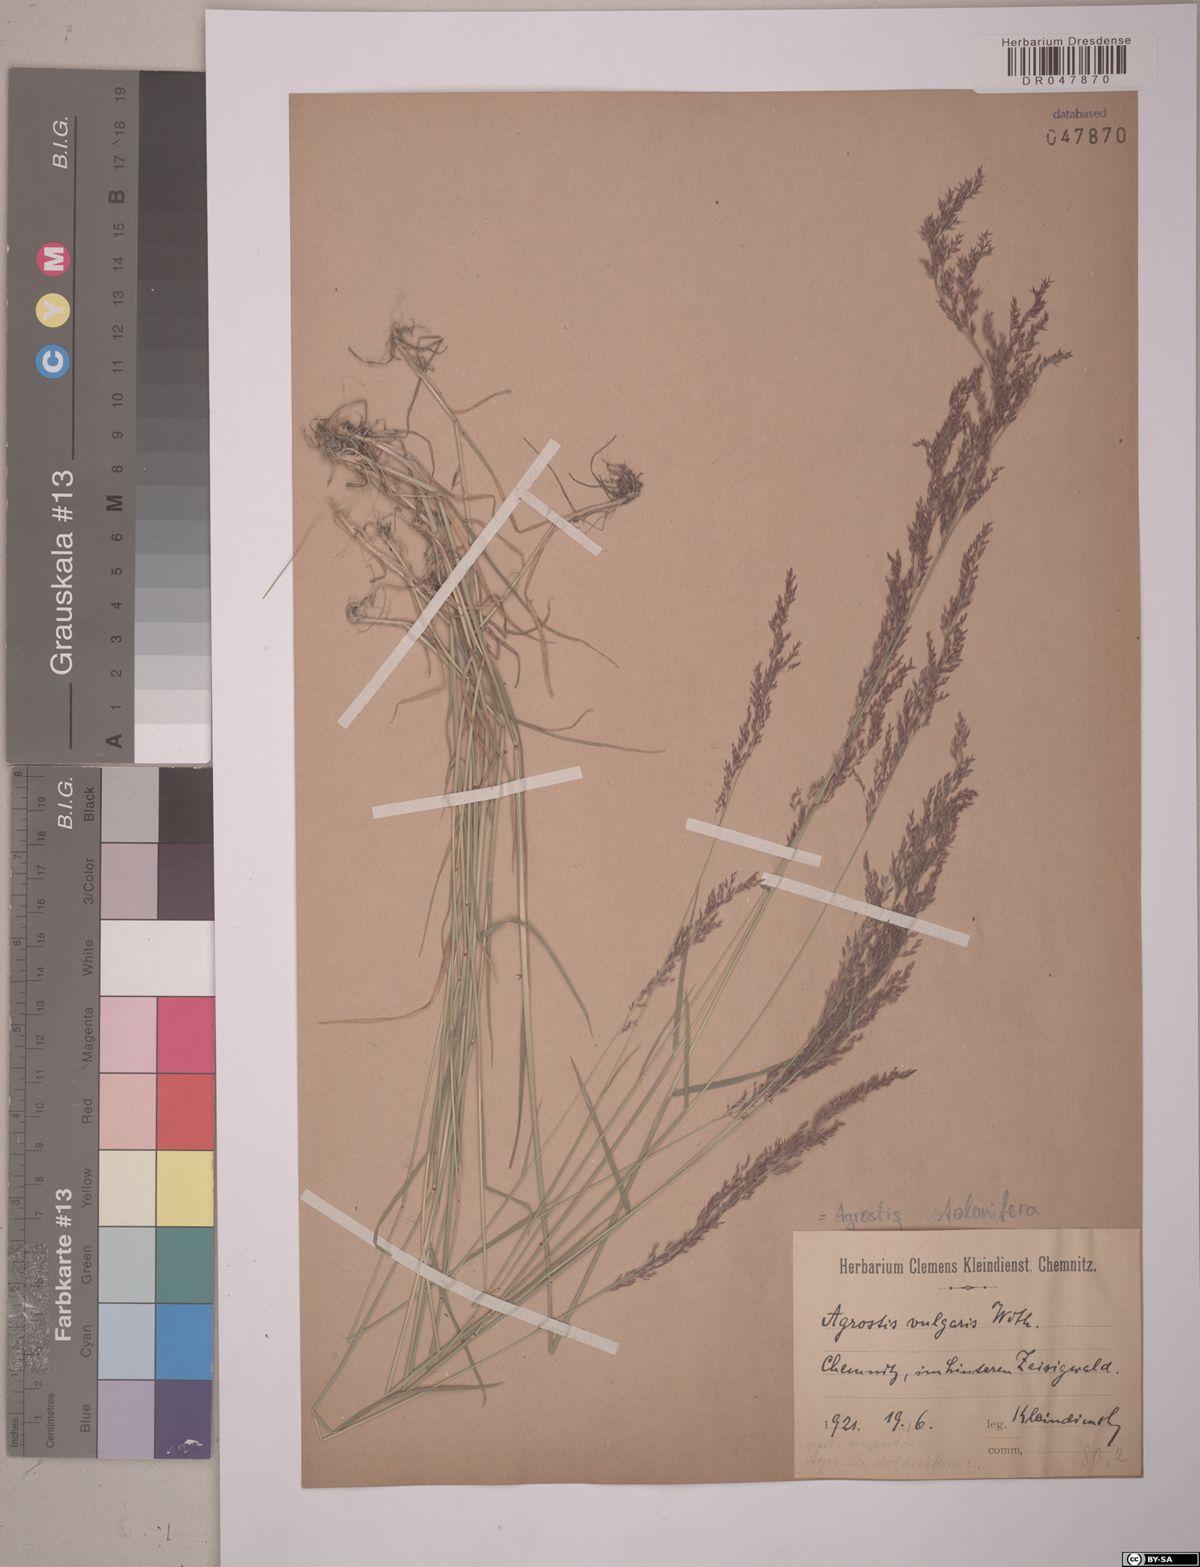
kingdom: Plantae
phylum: Tracheophyta
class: Liliopsida
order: Poales
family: Poaceae
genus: Agrostis
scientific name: Agrostis stolonifera
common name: Creeping bentgrass
